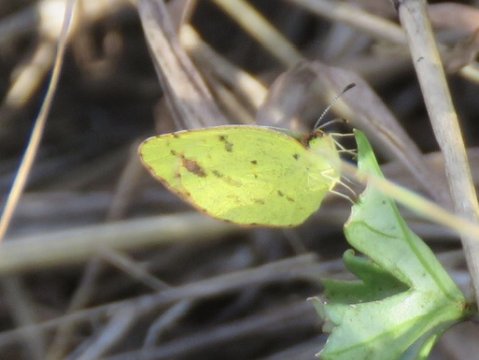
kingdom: Animalia
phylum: Arthropoda
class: Insecta
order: Lepidoptera
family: Pieridae
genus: Pyrisitia
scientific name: Pyrisitia lisa
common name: Little Yellow
